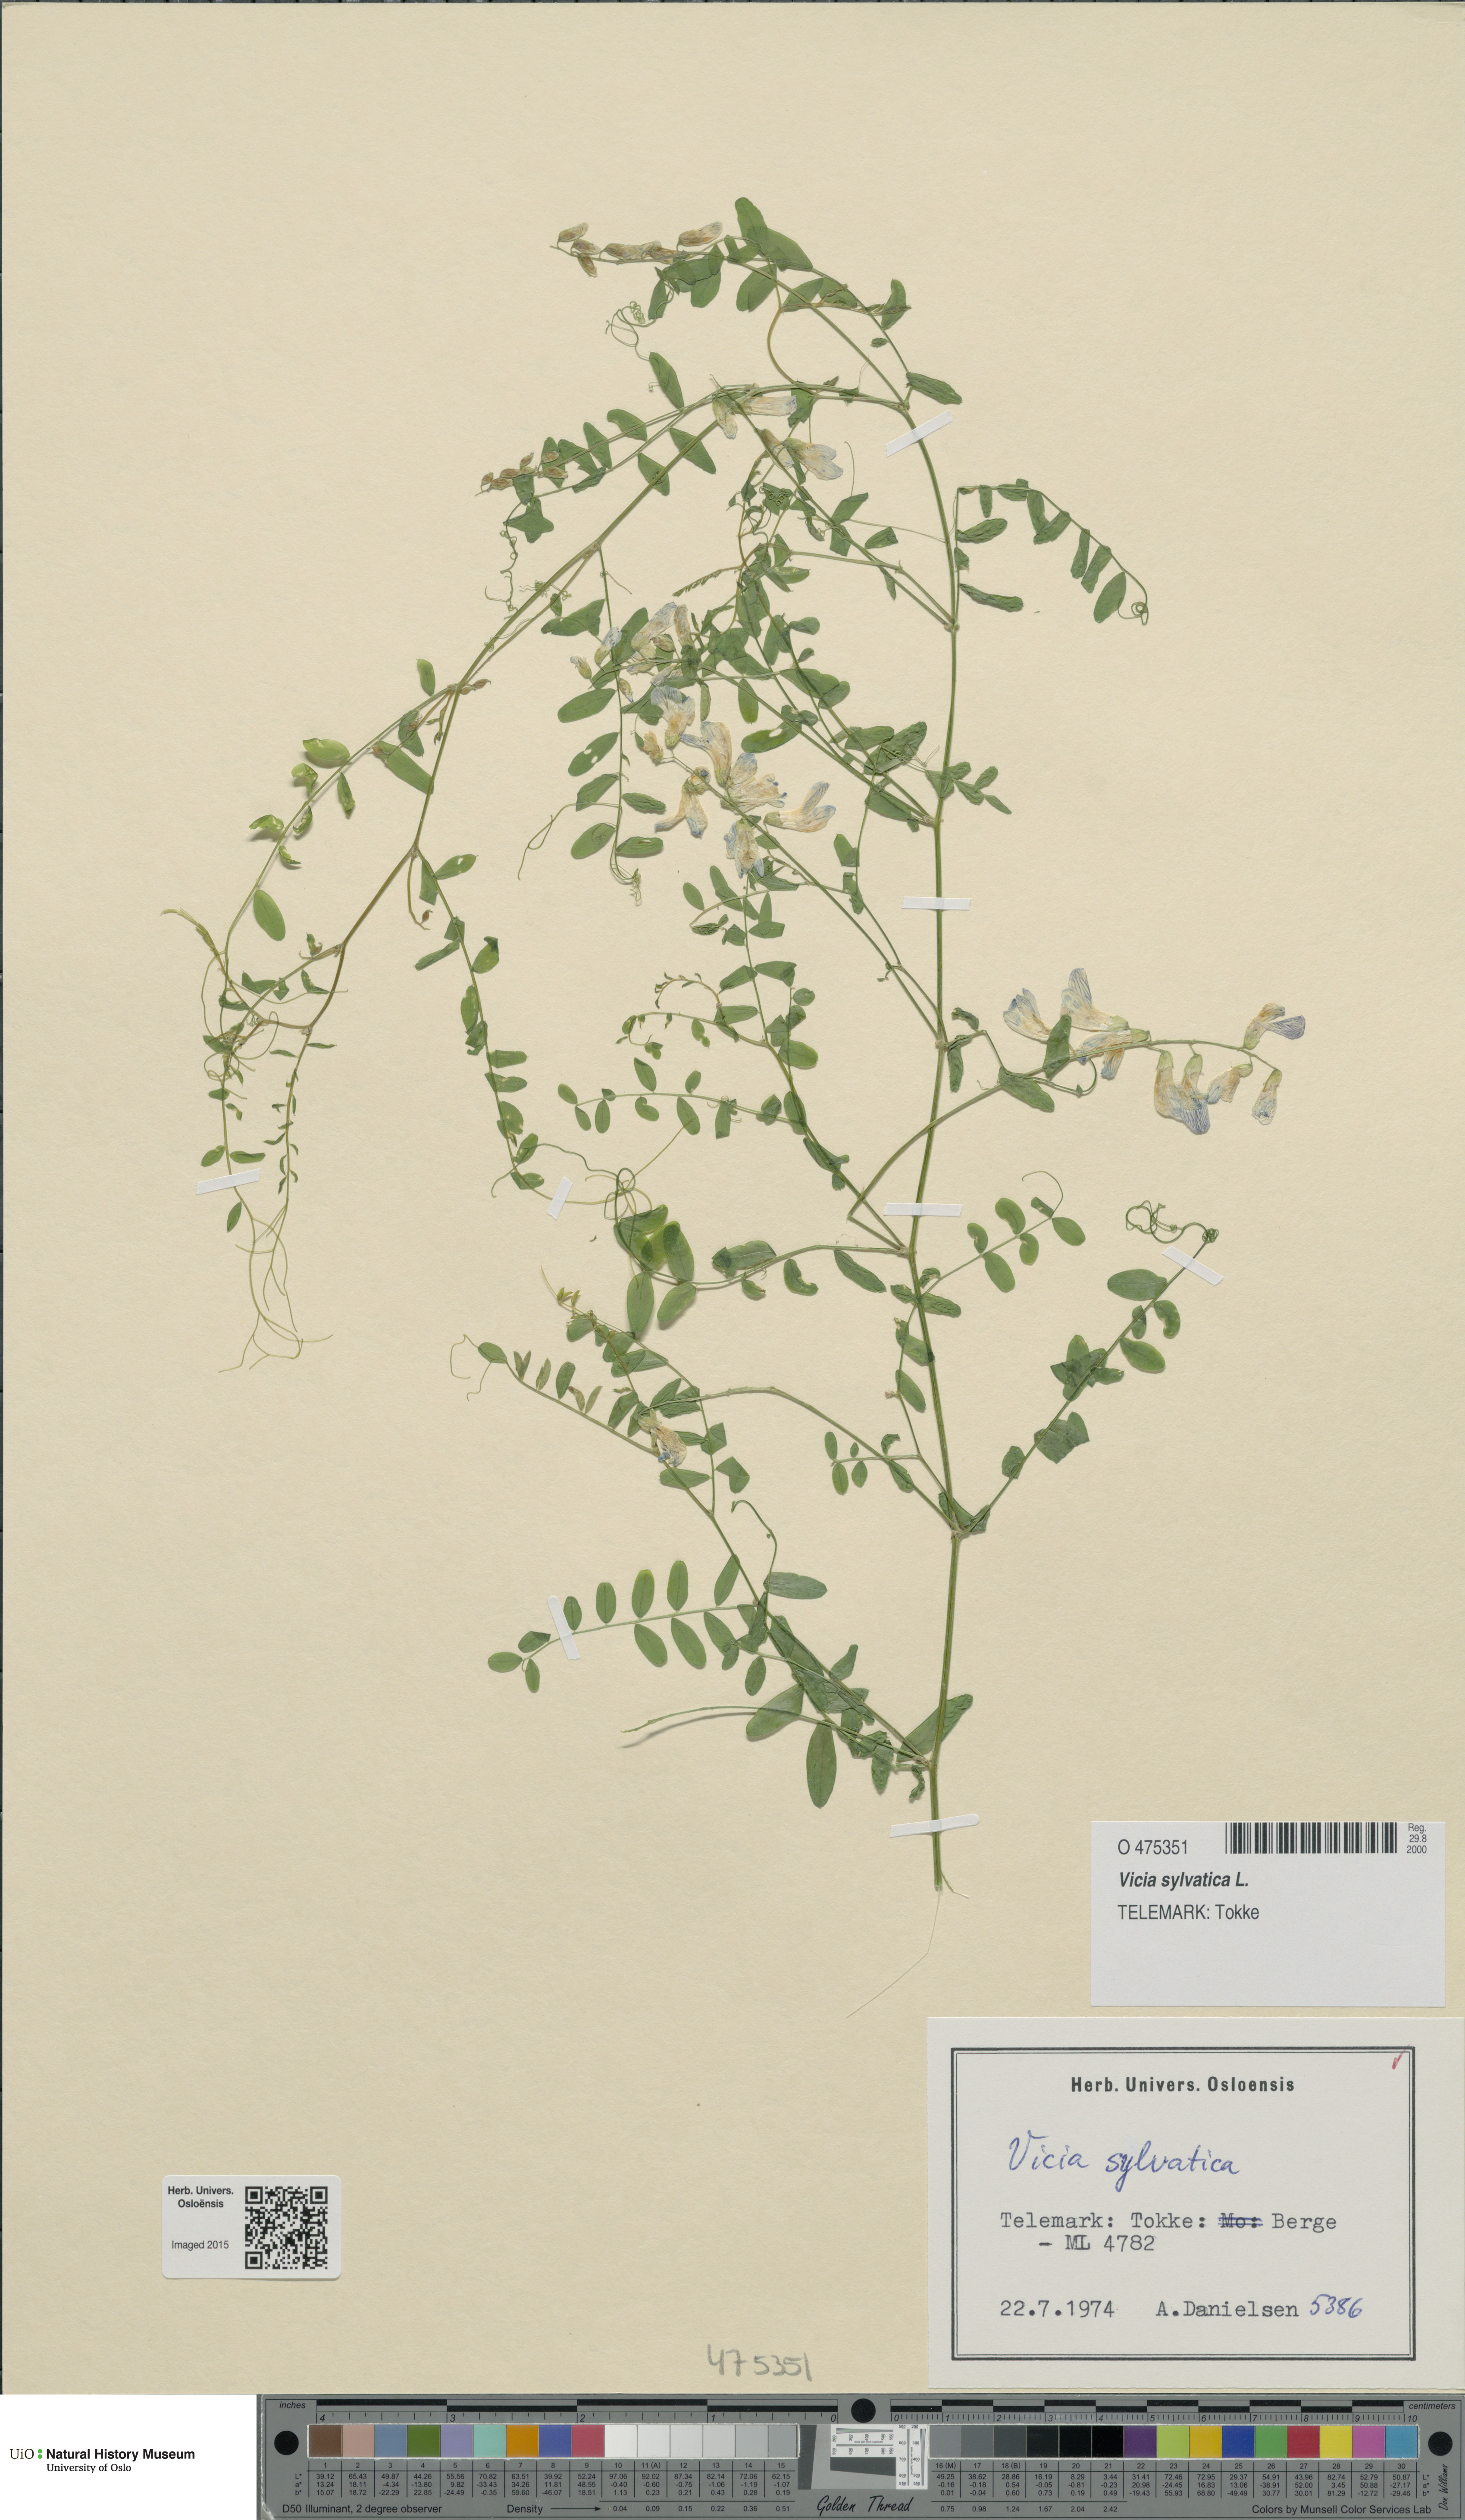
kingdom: Plantae
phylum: Tracheophyta
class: Magnoliopsida
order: Fabales
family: Fabaceae
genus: Vicia
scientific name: Vicia sylvatica
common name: Wood vetch
